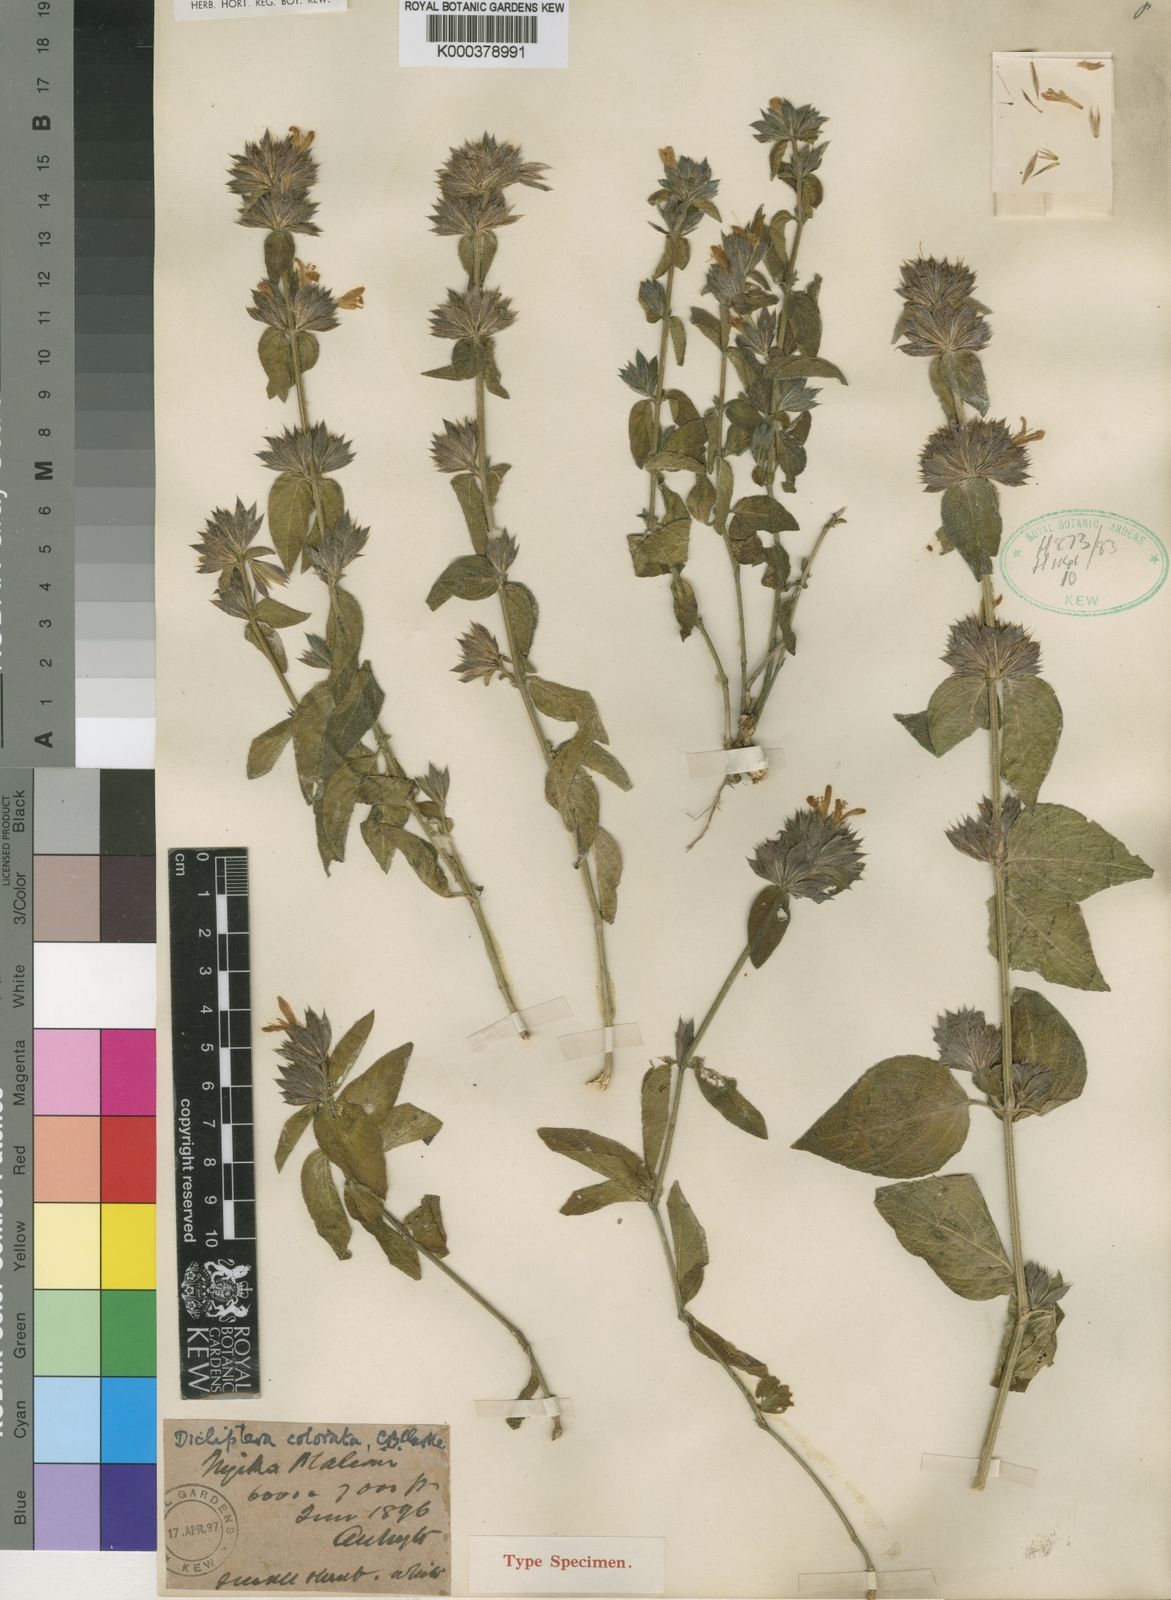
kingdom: Plantae
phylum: Tracheophyta
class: Magnoliopsida
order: Lamiales
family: Acanthaceae
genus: Dicliptera
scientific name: Dicliptera colorata
